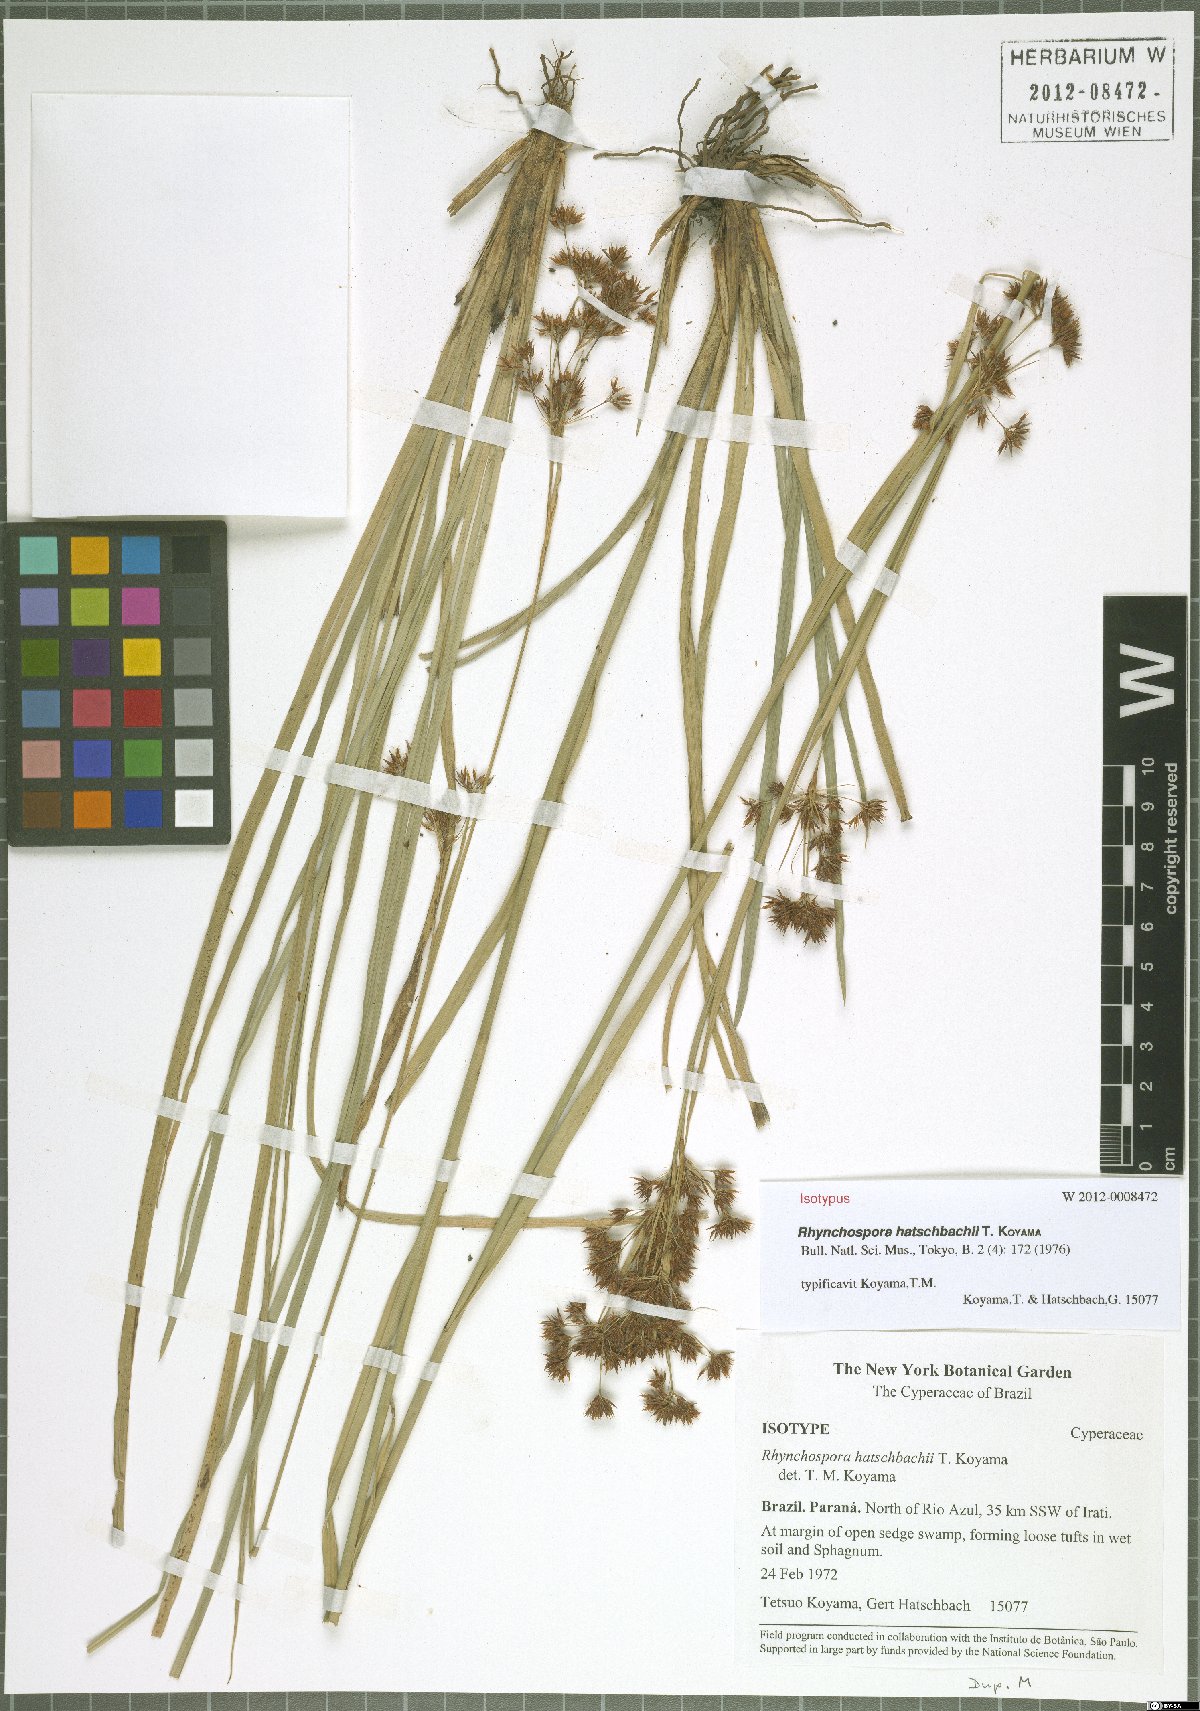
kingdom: Plantae
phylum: Tracheophyta
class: Liliopsida
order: Poales
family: Cyperaceae
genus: Rhynchospora
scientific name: Rhynchospora hatschbachii
